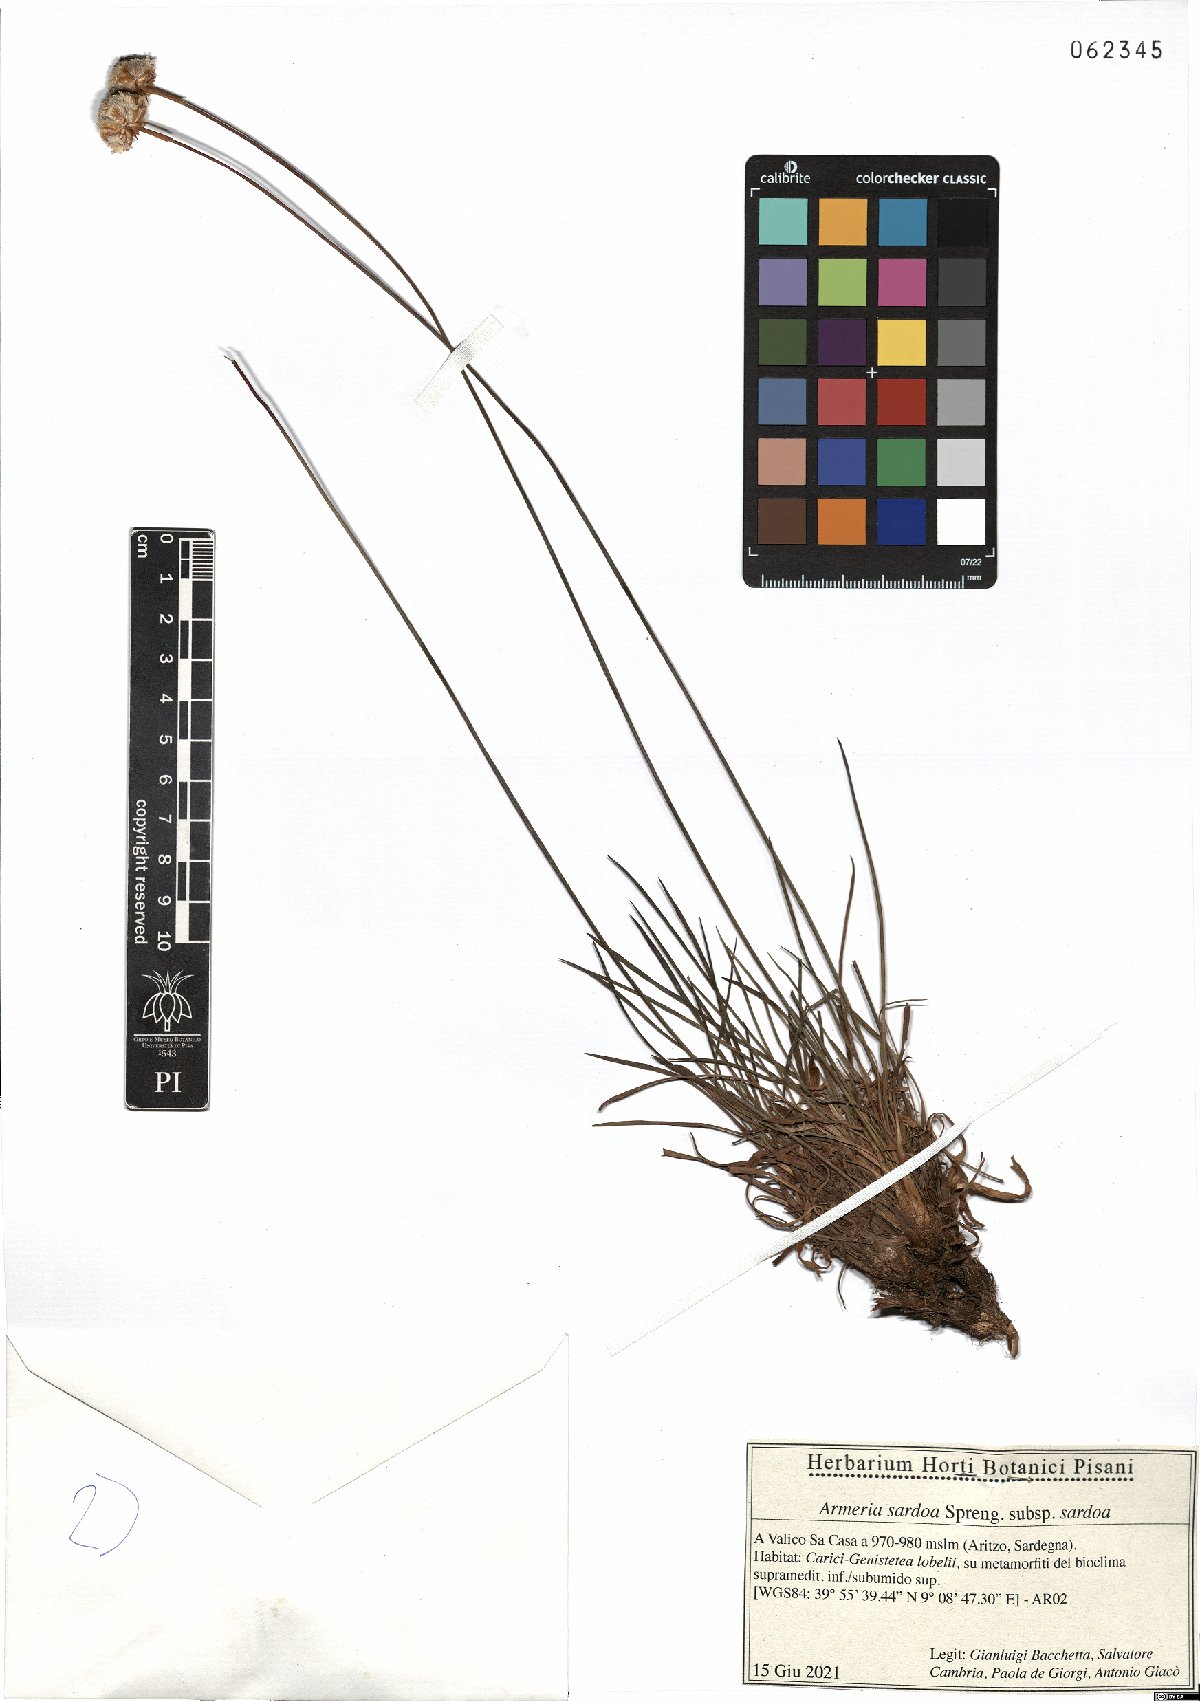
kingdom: Plantae
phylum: Tracheophyta
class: Magnoliopsida
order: Caryophyllales
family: Plumbaginaceae
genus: Armeria
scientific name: Armeria sardoa
